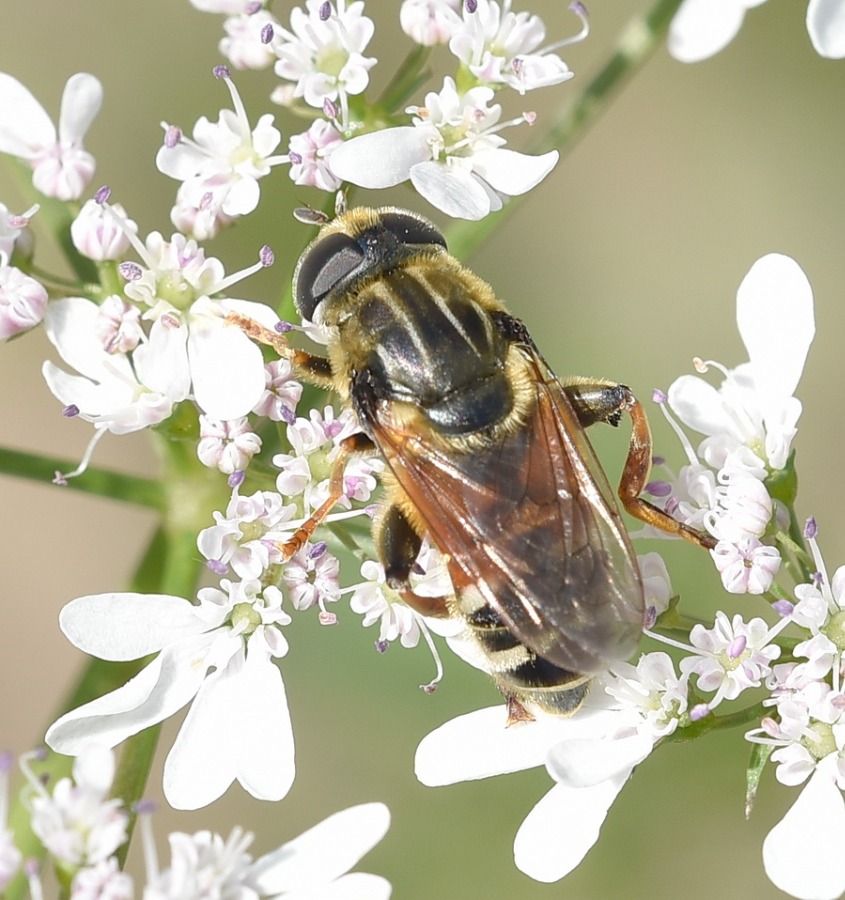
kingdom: Animalia
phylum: Arthropoda
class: Insecta
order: Diptera
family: Syrphidae
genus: Merodon
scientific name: Merodon avidus
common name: Smal narcisflue
